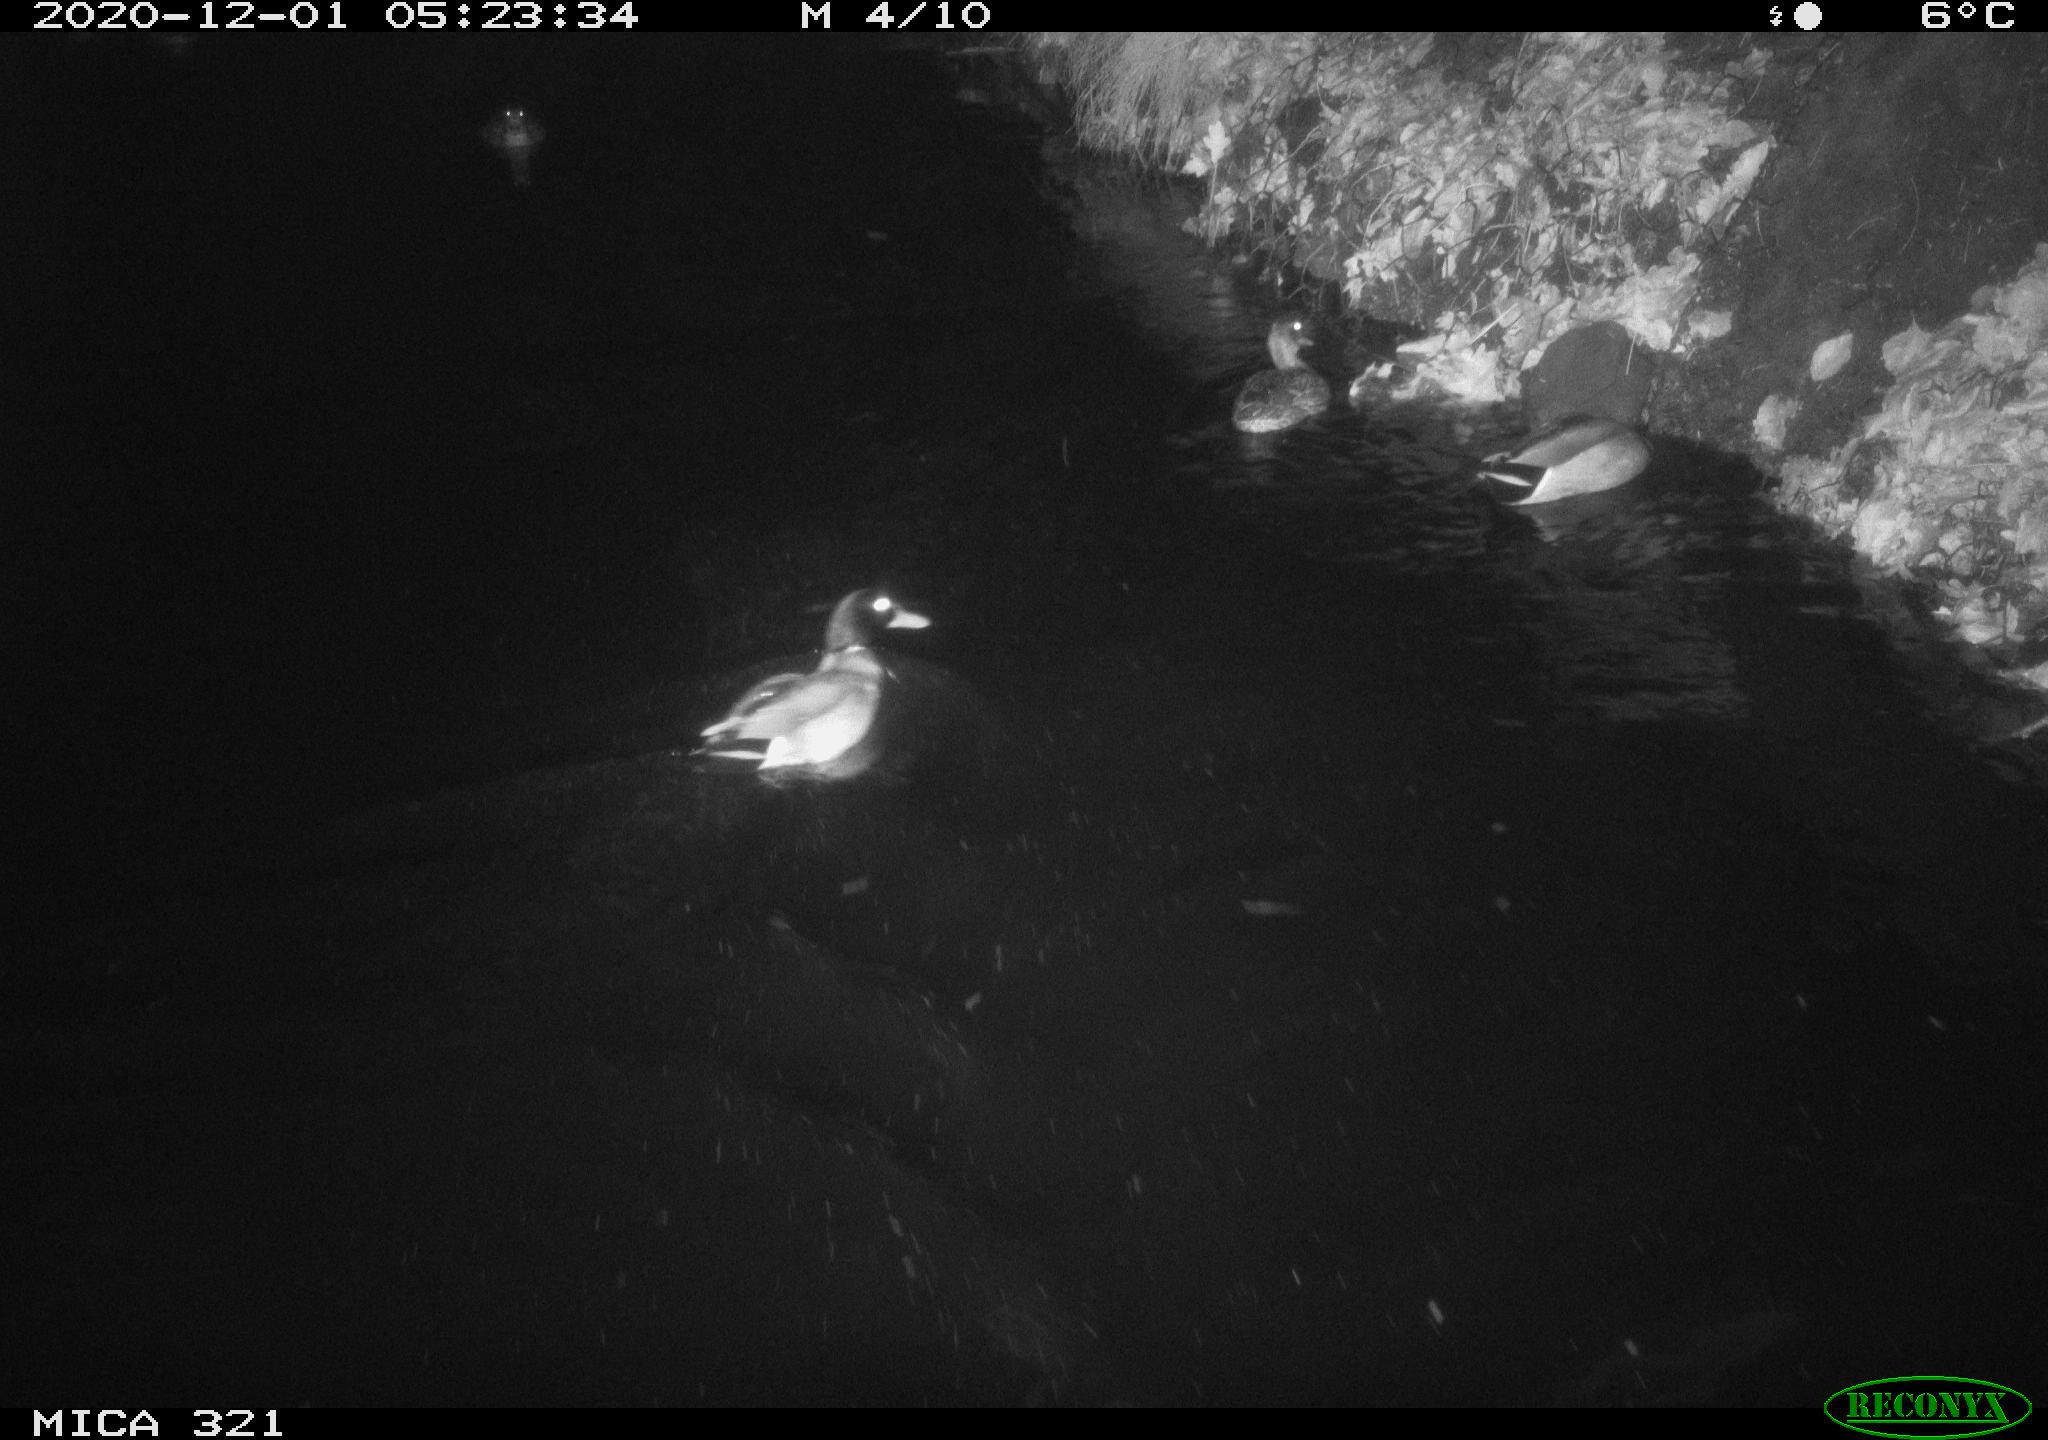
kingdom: Animalia
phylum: Chordata
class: Aves
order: Anseriformes
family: Anatidae
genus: Anas
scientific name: Anas platyrhynchos
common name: Mallard
